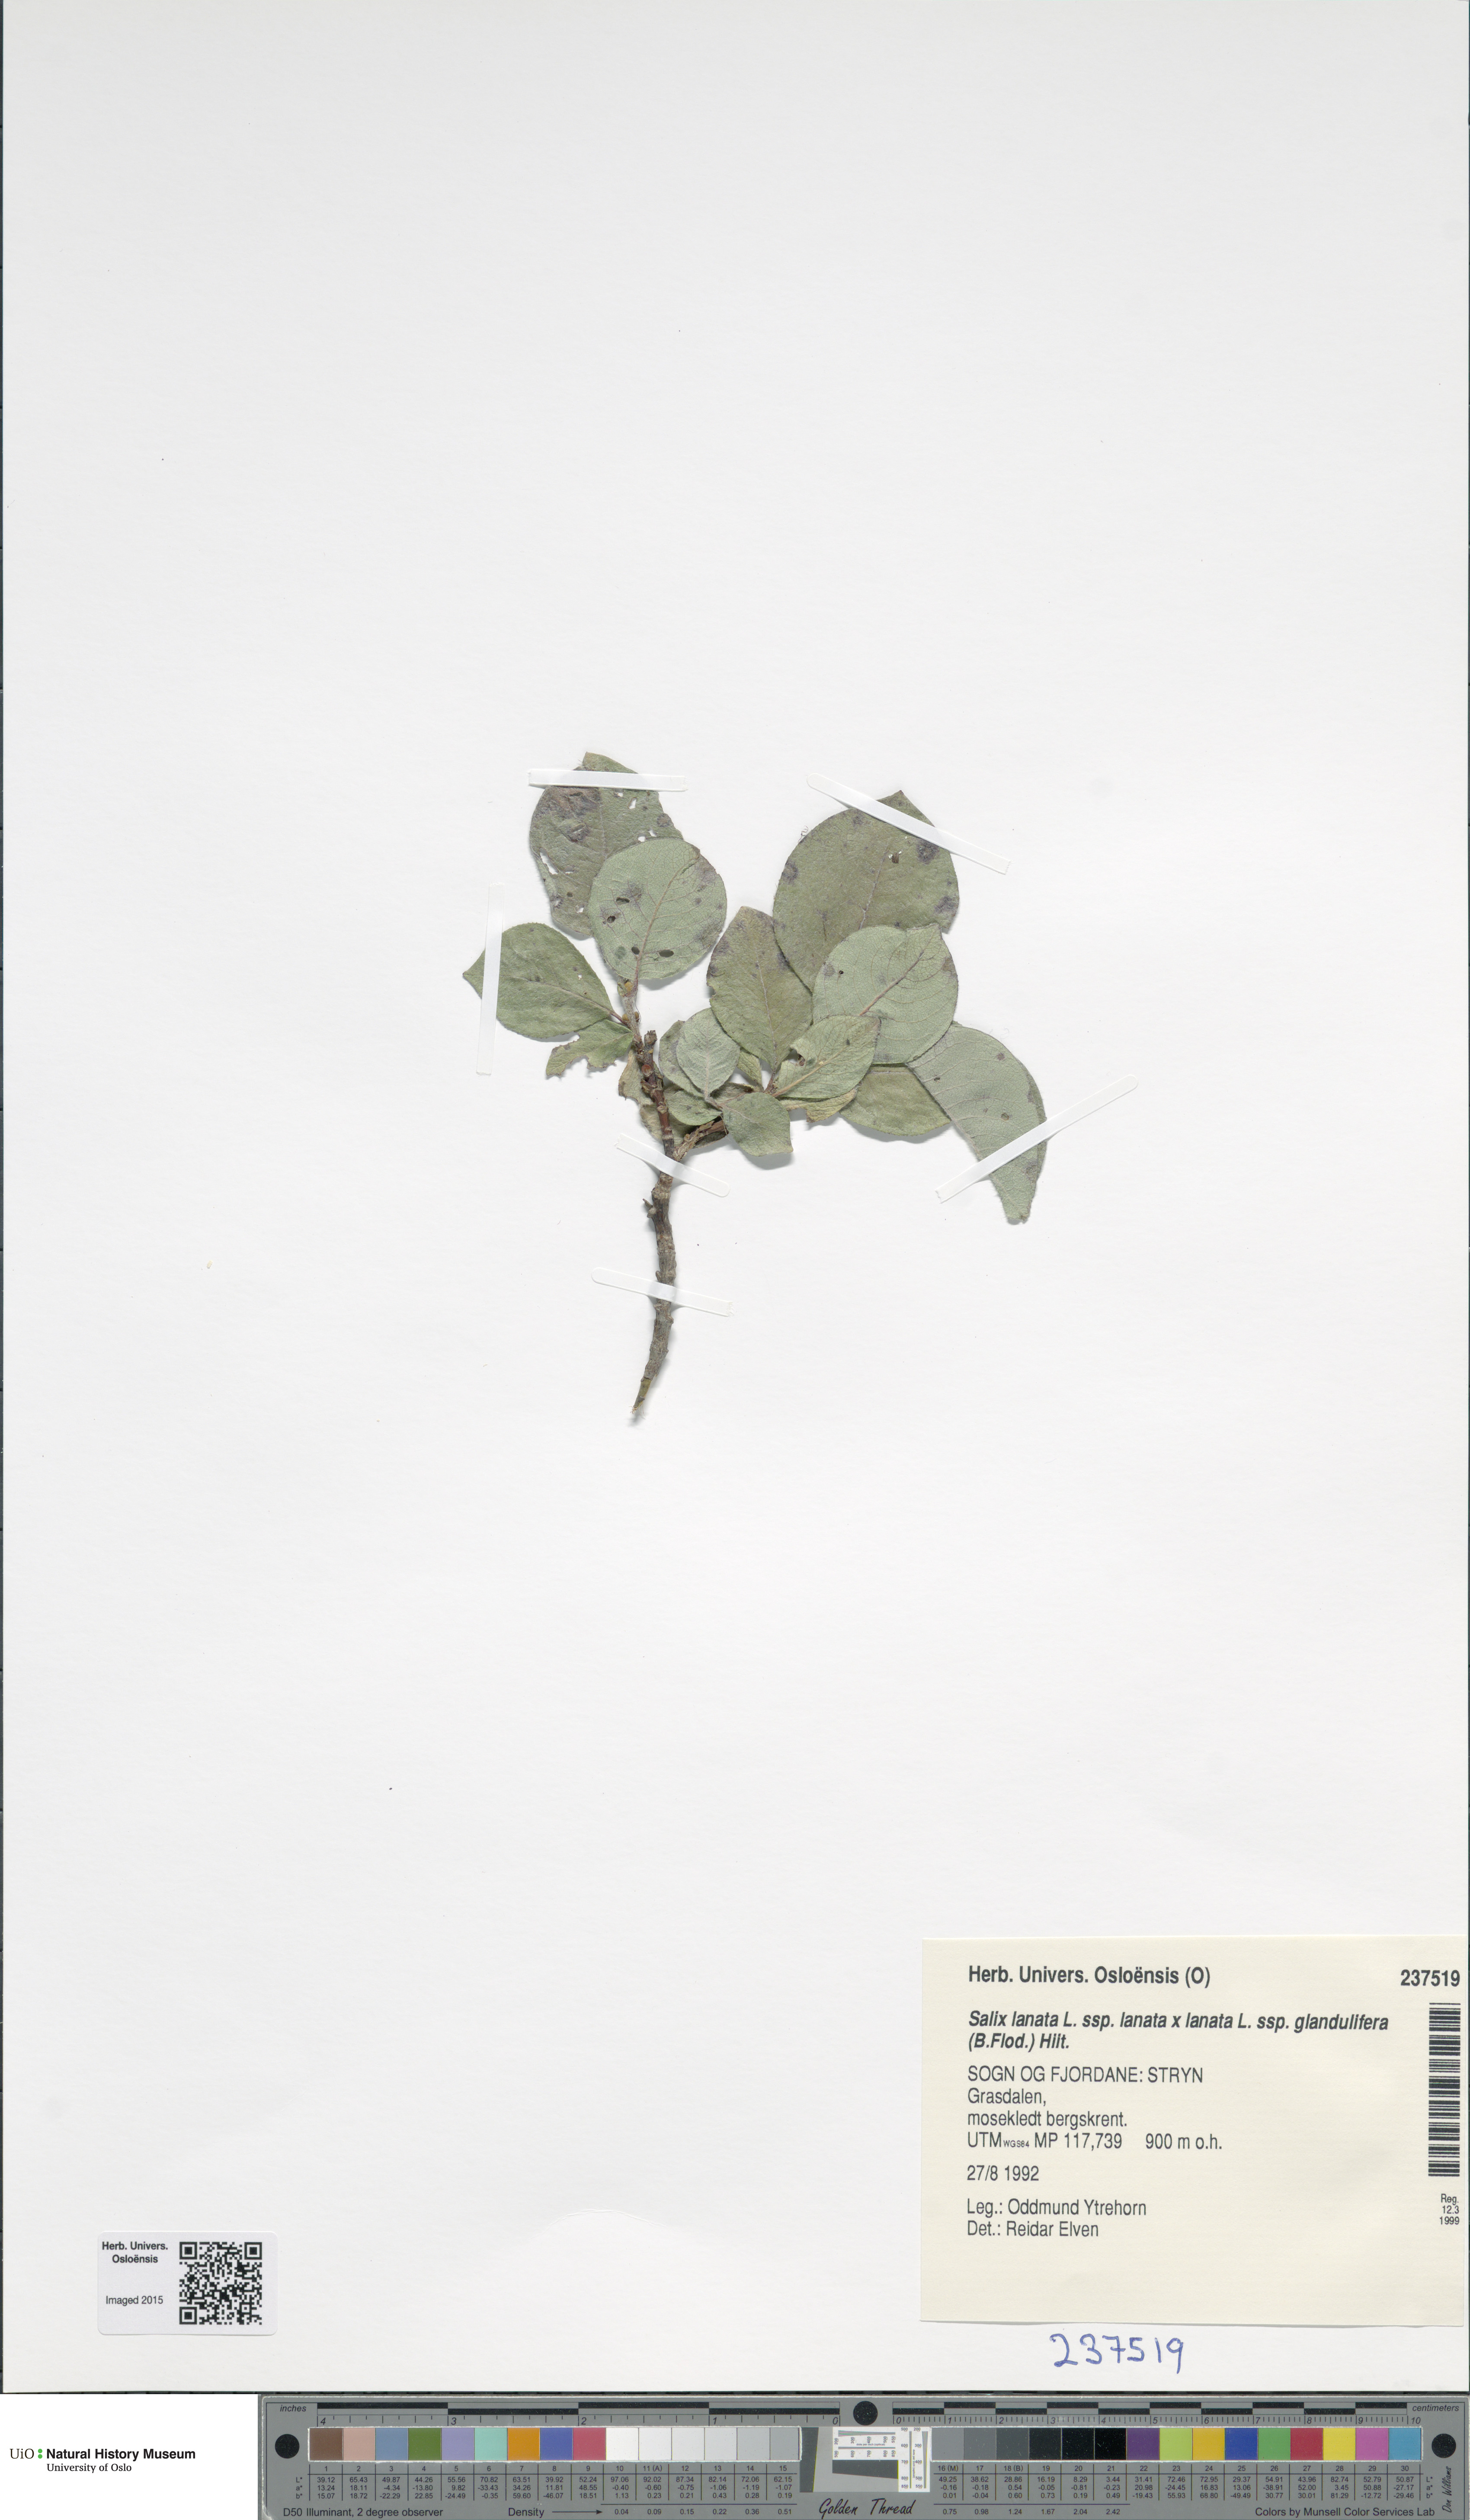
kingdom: Plantae
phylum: Tracheophyta
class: Magnoliopsida
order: Malpighiales
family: Salicaceae
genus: Salix
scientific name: Salix
